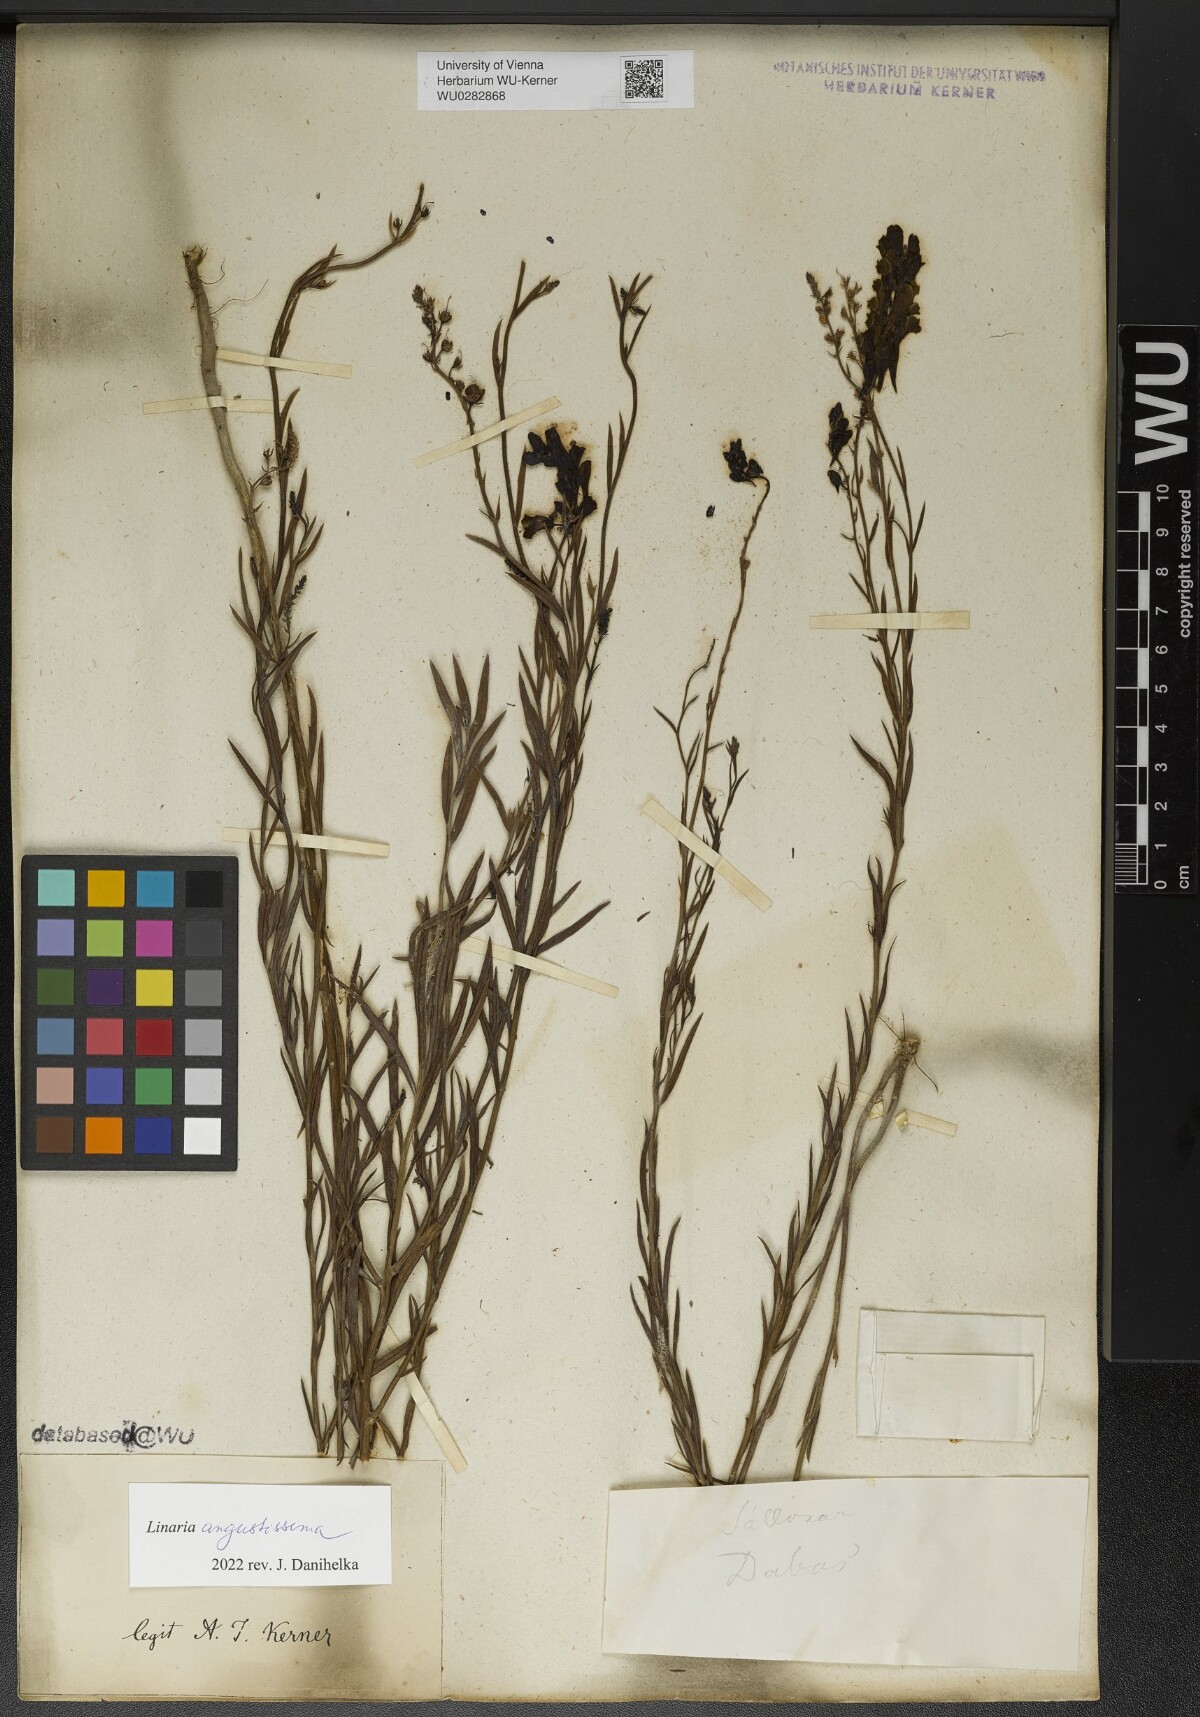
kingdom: Plantae
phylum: Tracheophyta
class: Magnoliopsida
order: Lamiales
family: Plantaginaceae
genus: Linaria
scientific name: Linaria angustissima
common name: Italian toadflax
